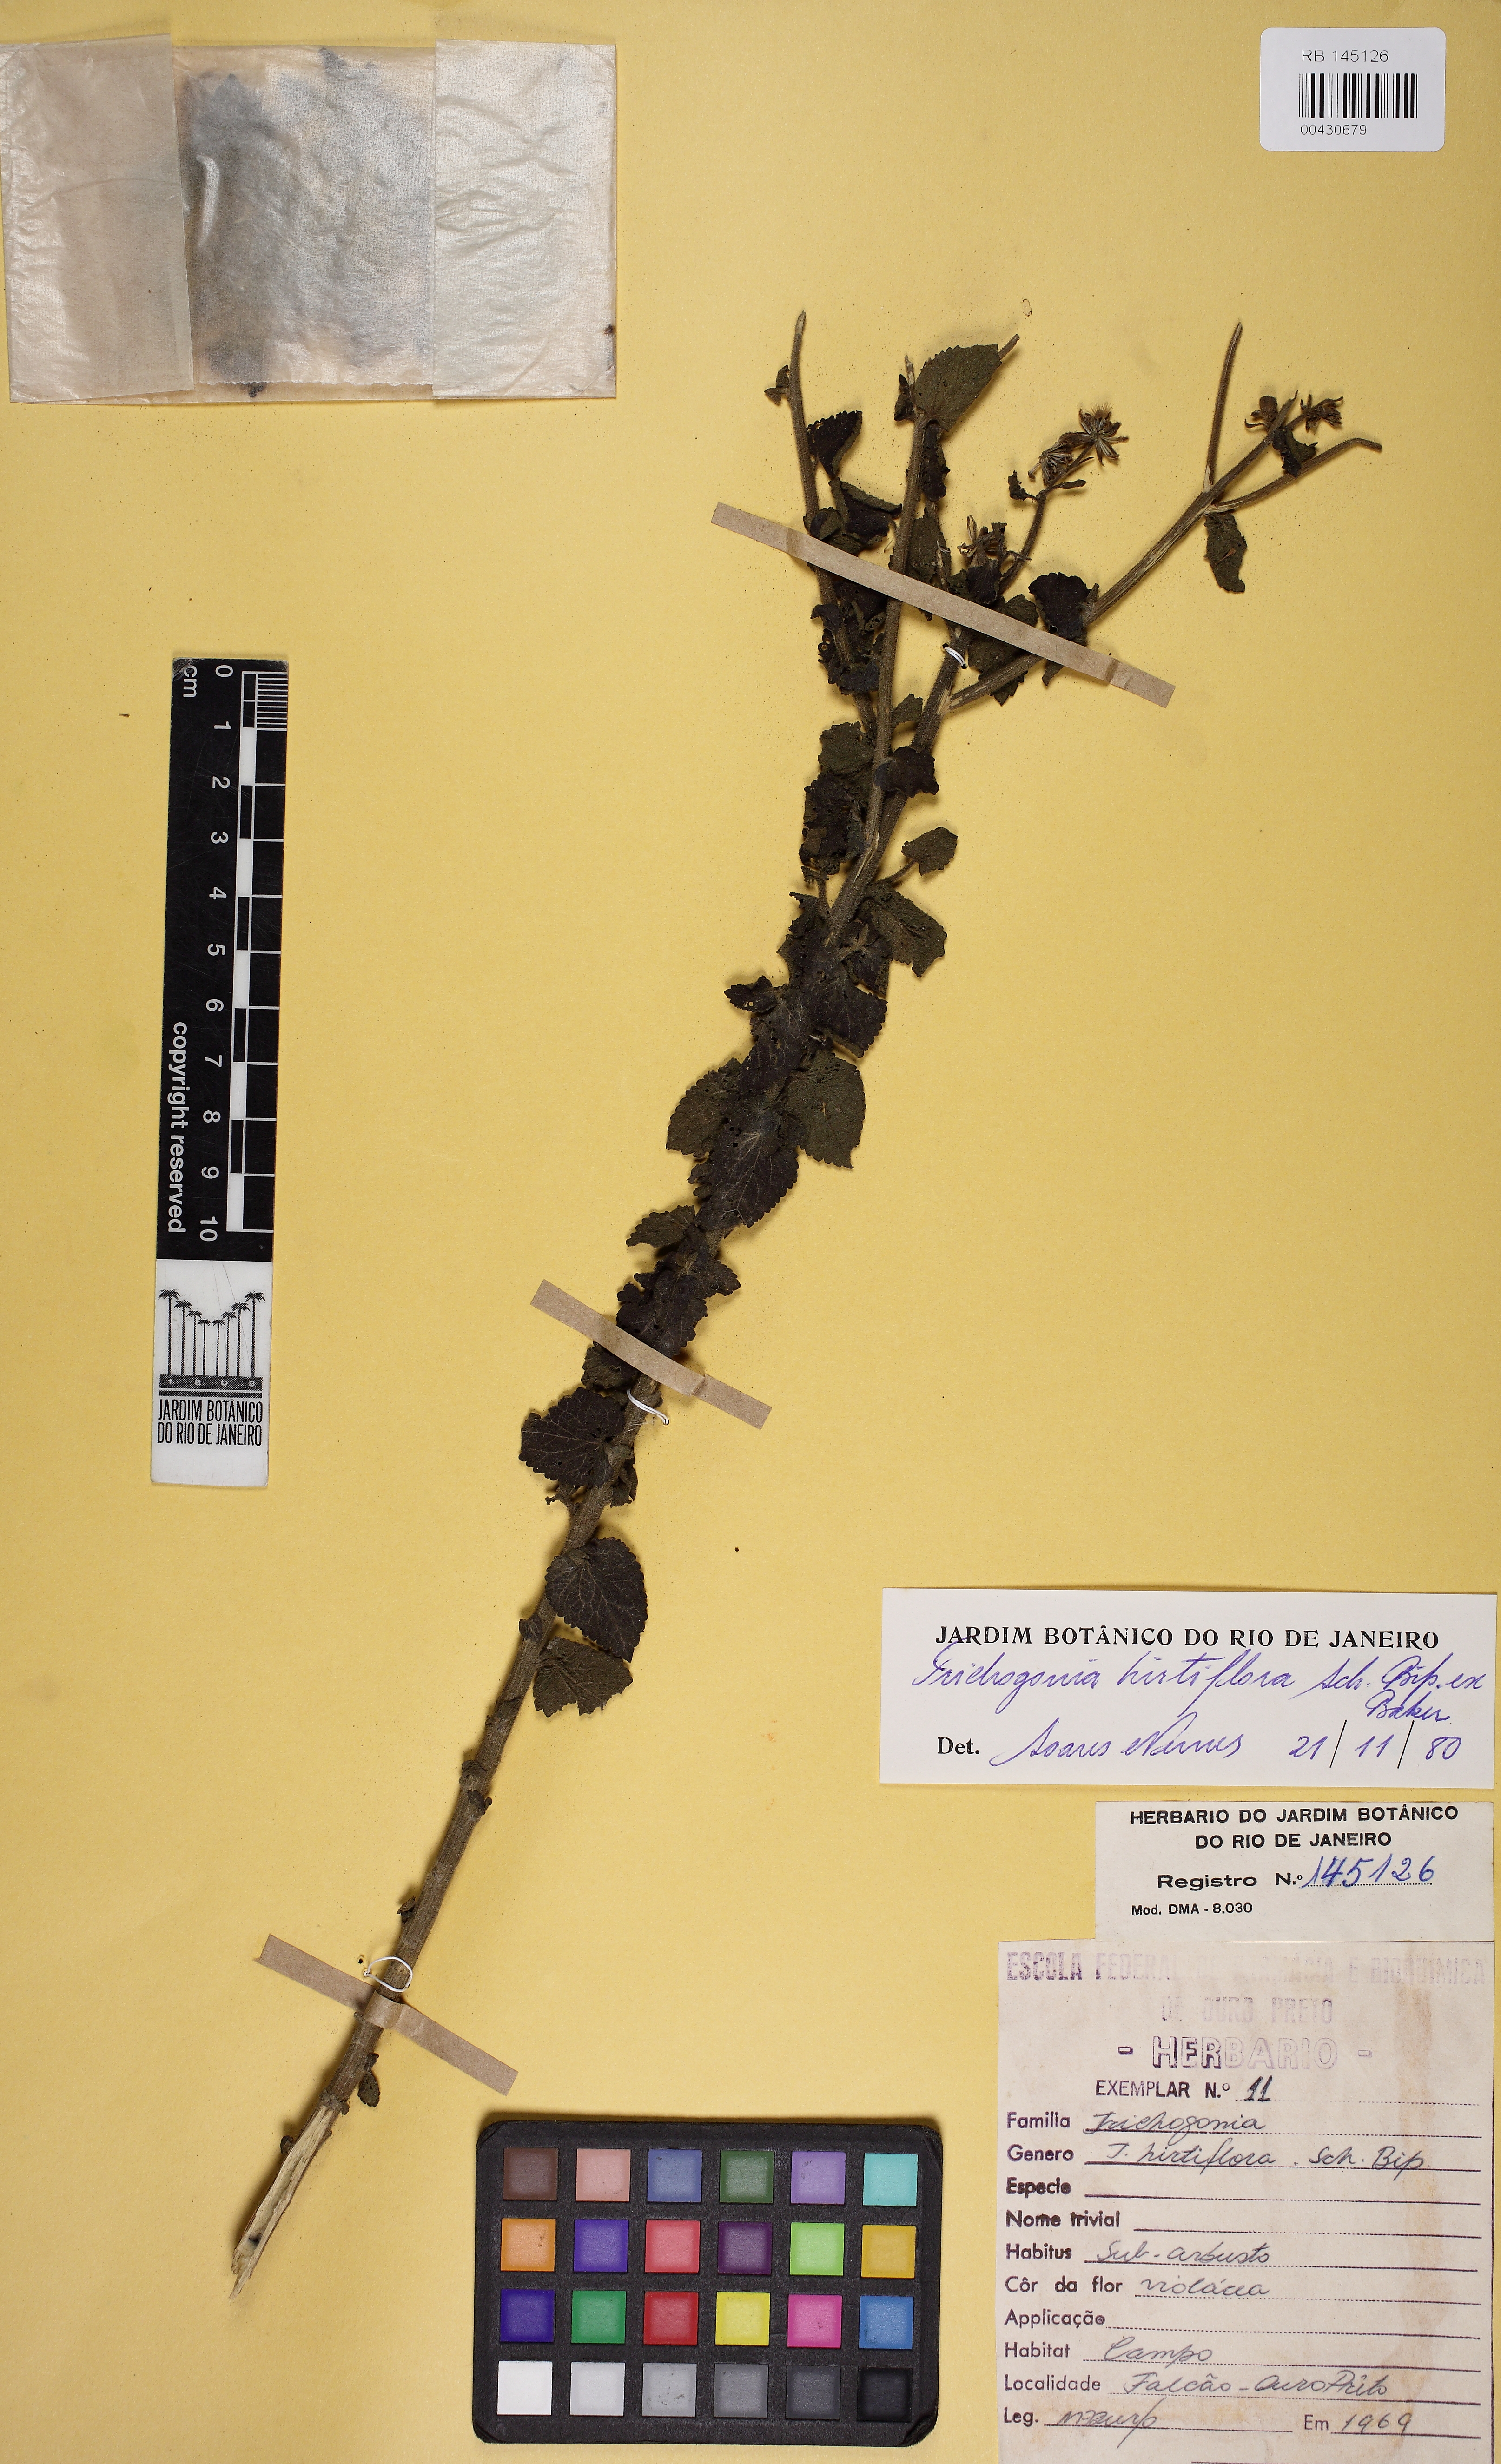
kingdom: Plantae
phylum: Tracheophyta
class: Magnoliopsida
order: Asterales
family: Asteraceae
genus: Trichogonia
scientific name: Trichogonia hirtiflora
